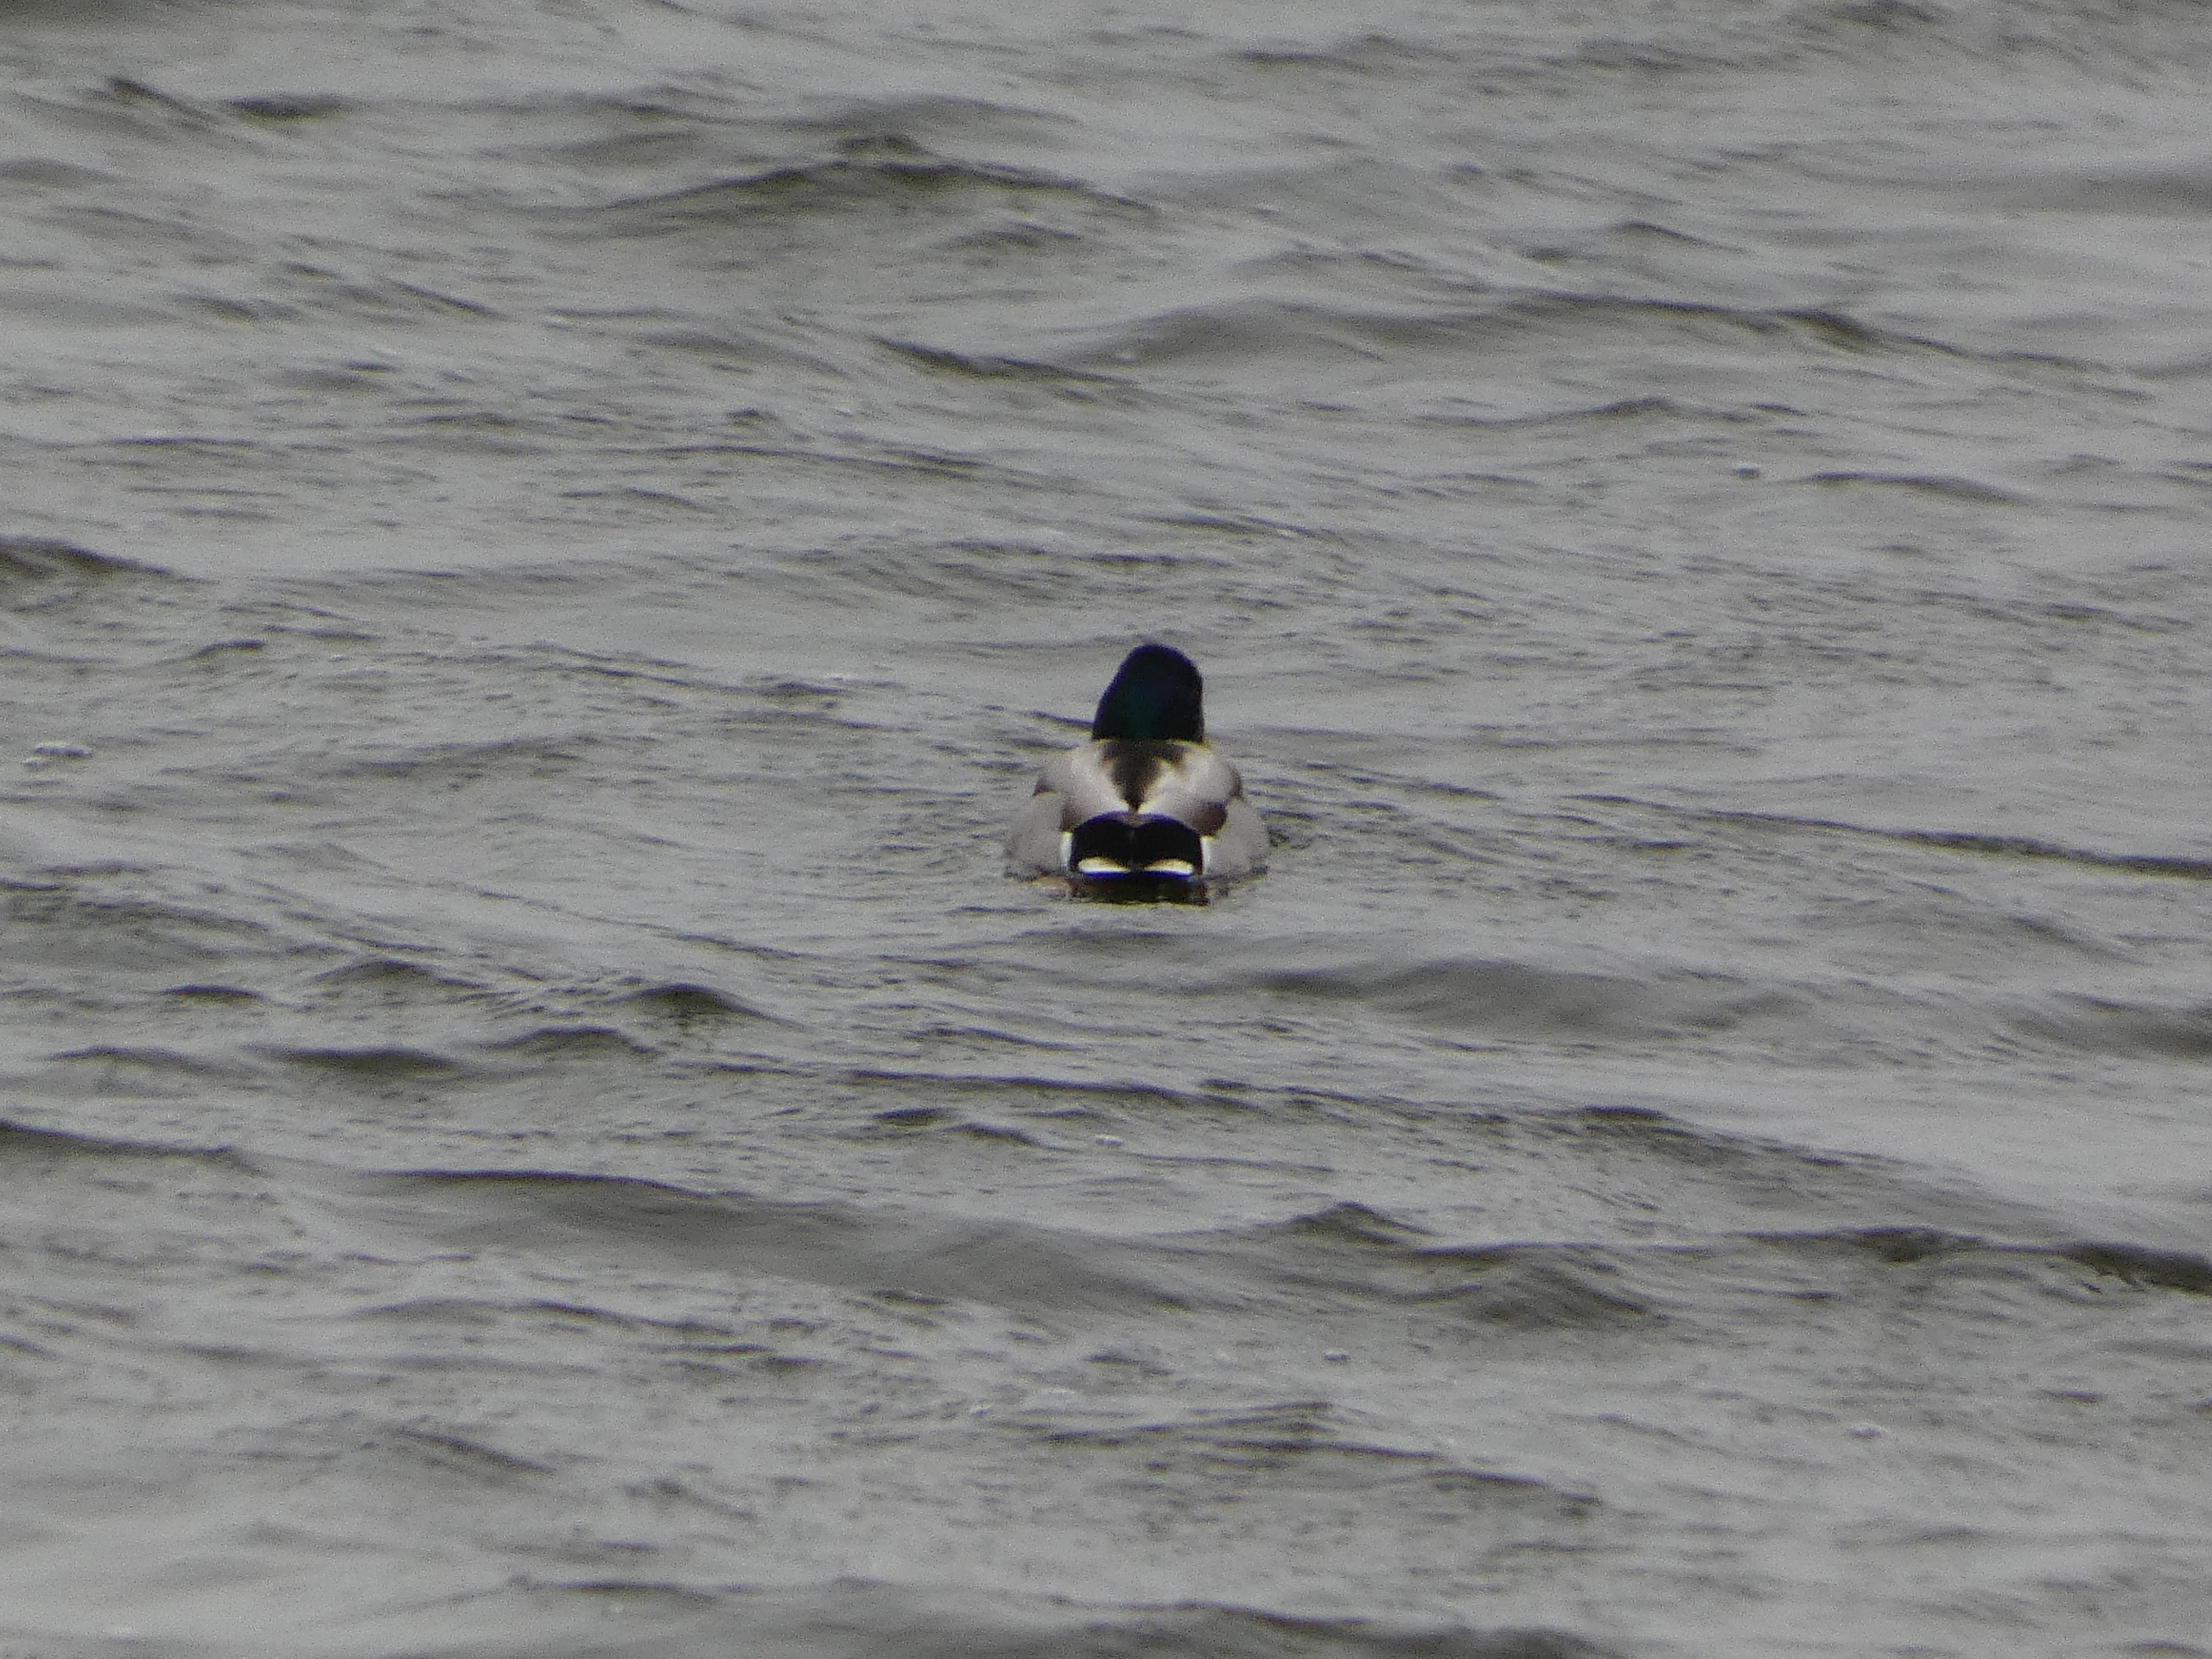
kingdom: Animalia
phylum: Chordata
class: Aves
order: Anseriformes
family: Anatidae
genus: Anas
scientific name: Anas platyrhynchos
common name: Gråand
